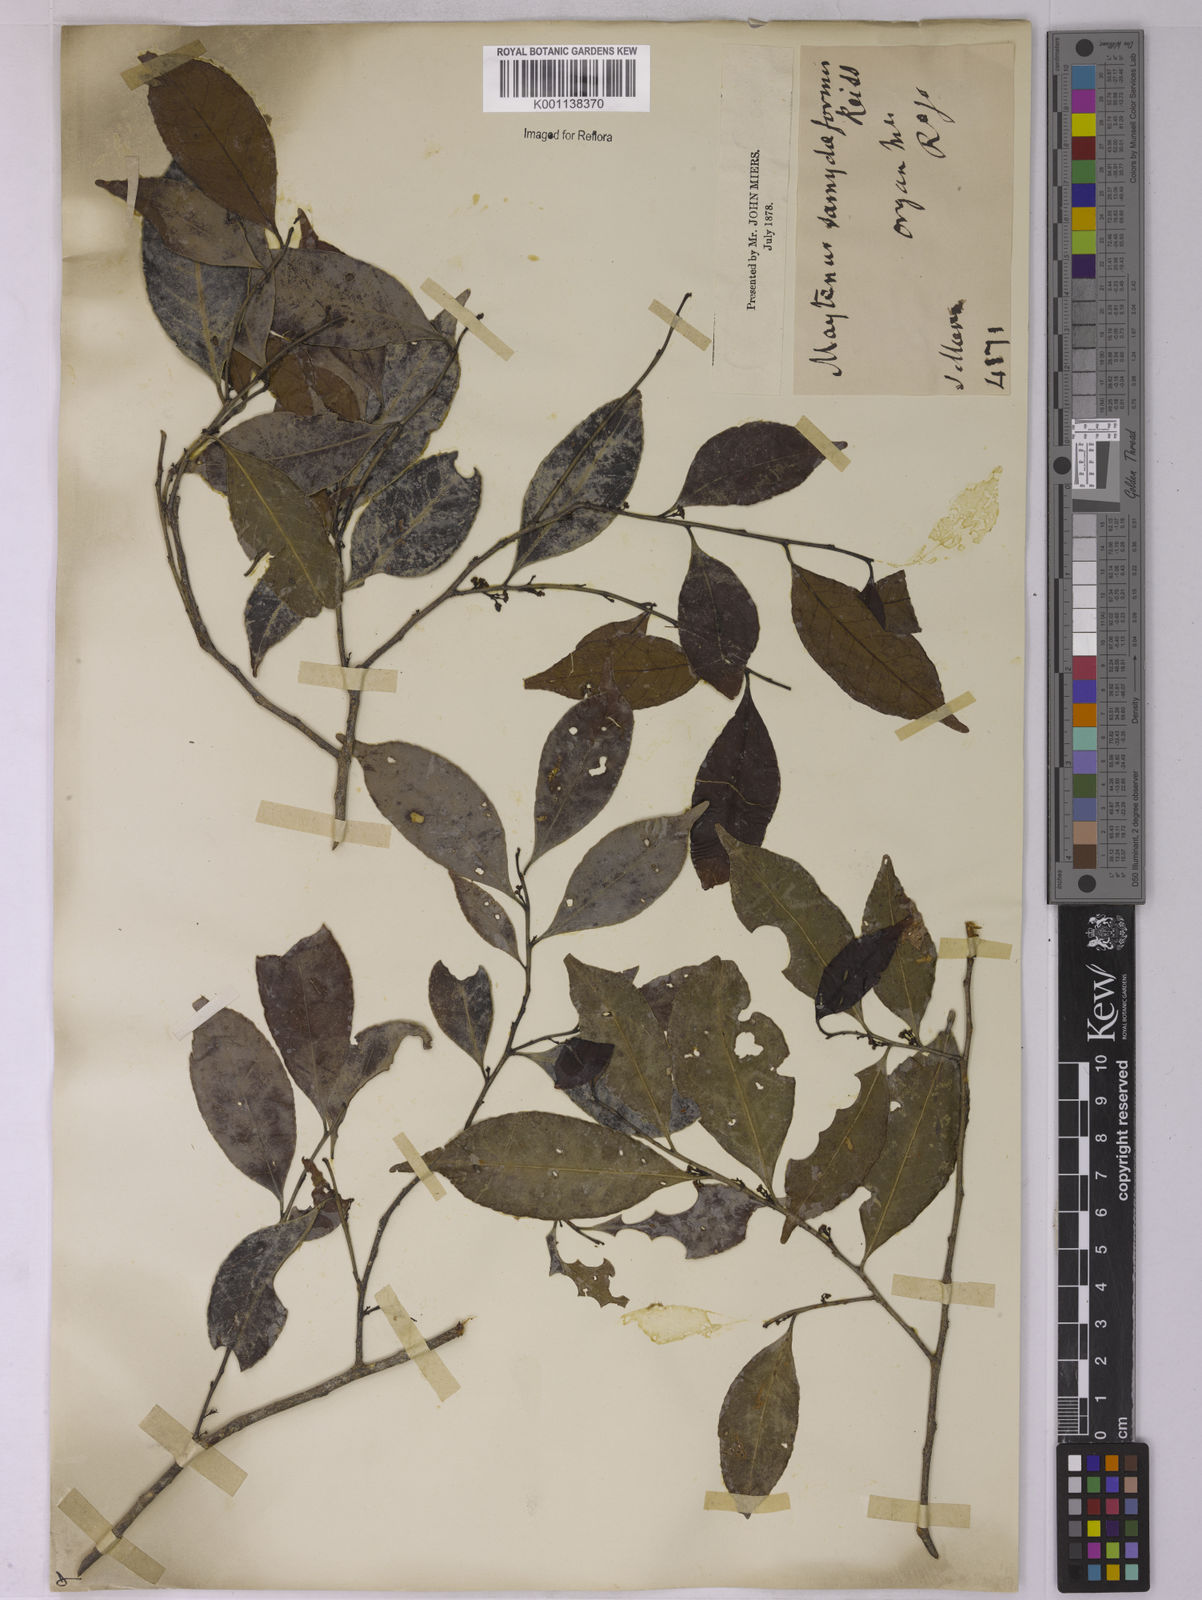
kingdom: Plantae
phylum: Tracheophyta
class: Magnoliopsida
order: Celastrales
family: Celastraceae
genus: Monteverdia
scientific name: Monteverdia samydiformis
